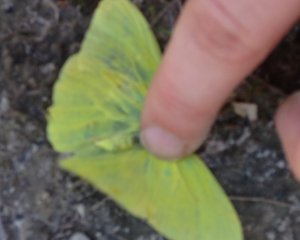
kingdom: Animalia
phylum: Arthropoda
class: Insecta
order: Lepidoptera
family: Pieridae
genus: Phoebis
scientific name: Phoebis sennae
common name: Cloudless Sulphur
